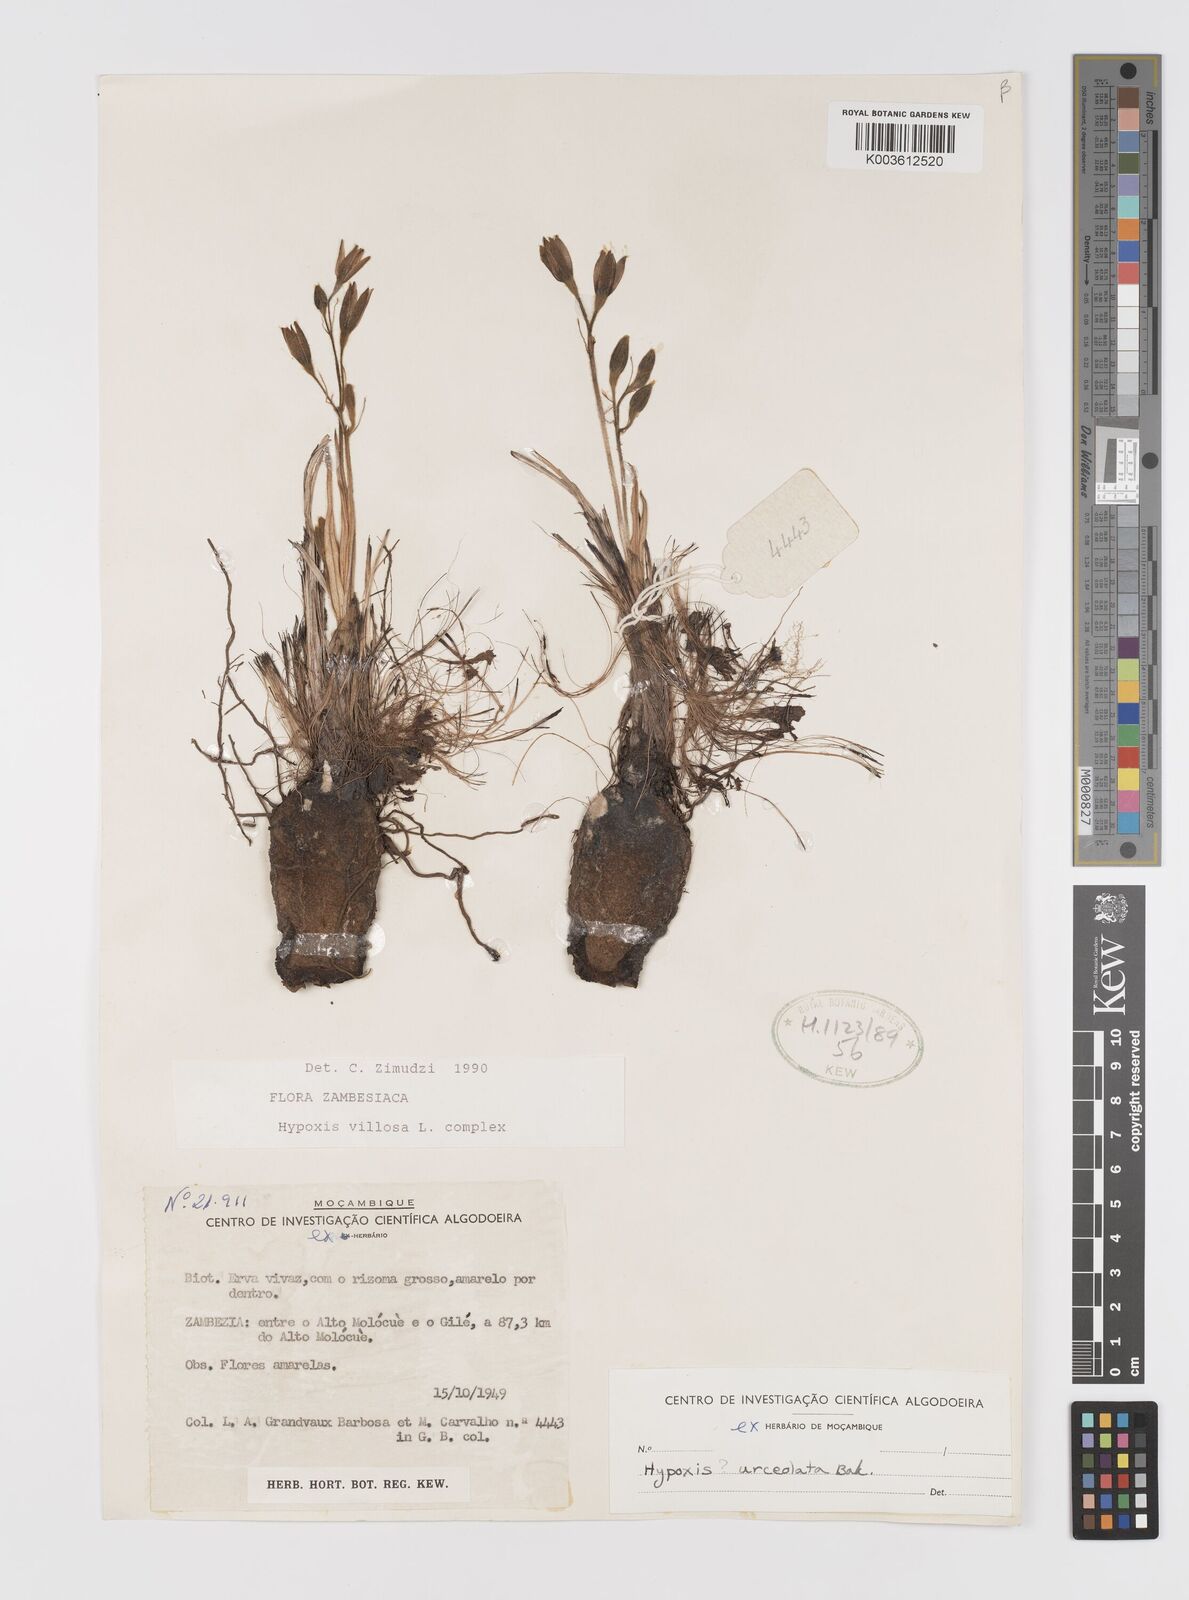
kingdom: Plantae
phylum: Tracheophyta
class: Liliopsida
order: Asparagales
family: Hypoxidaceae
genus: Hypoxis
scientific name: Hypoxis nyasica
